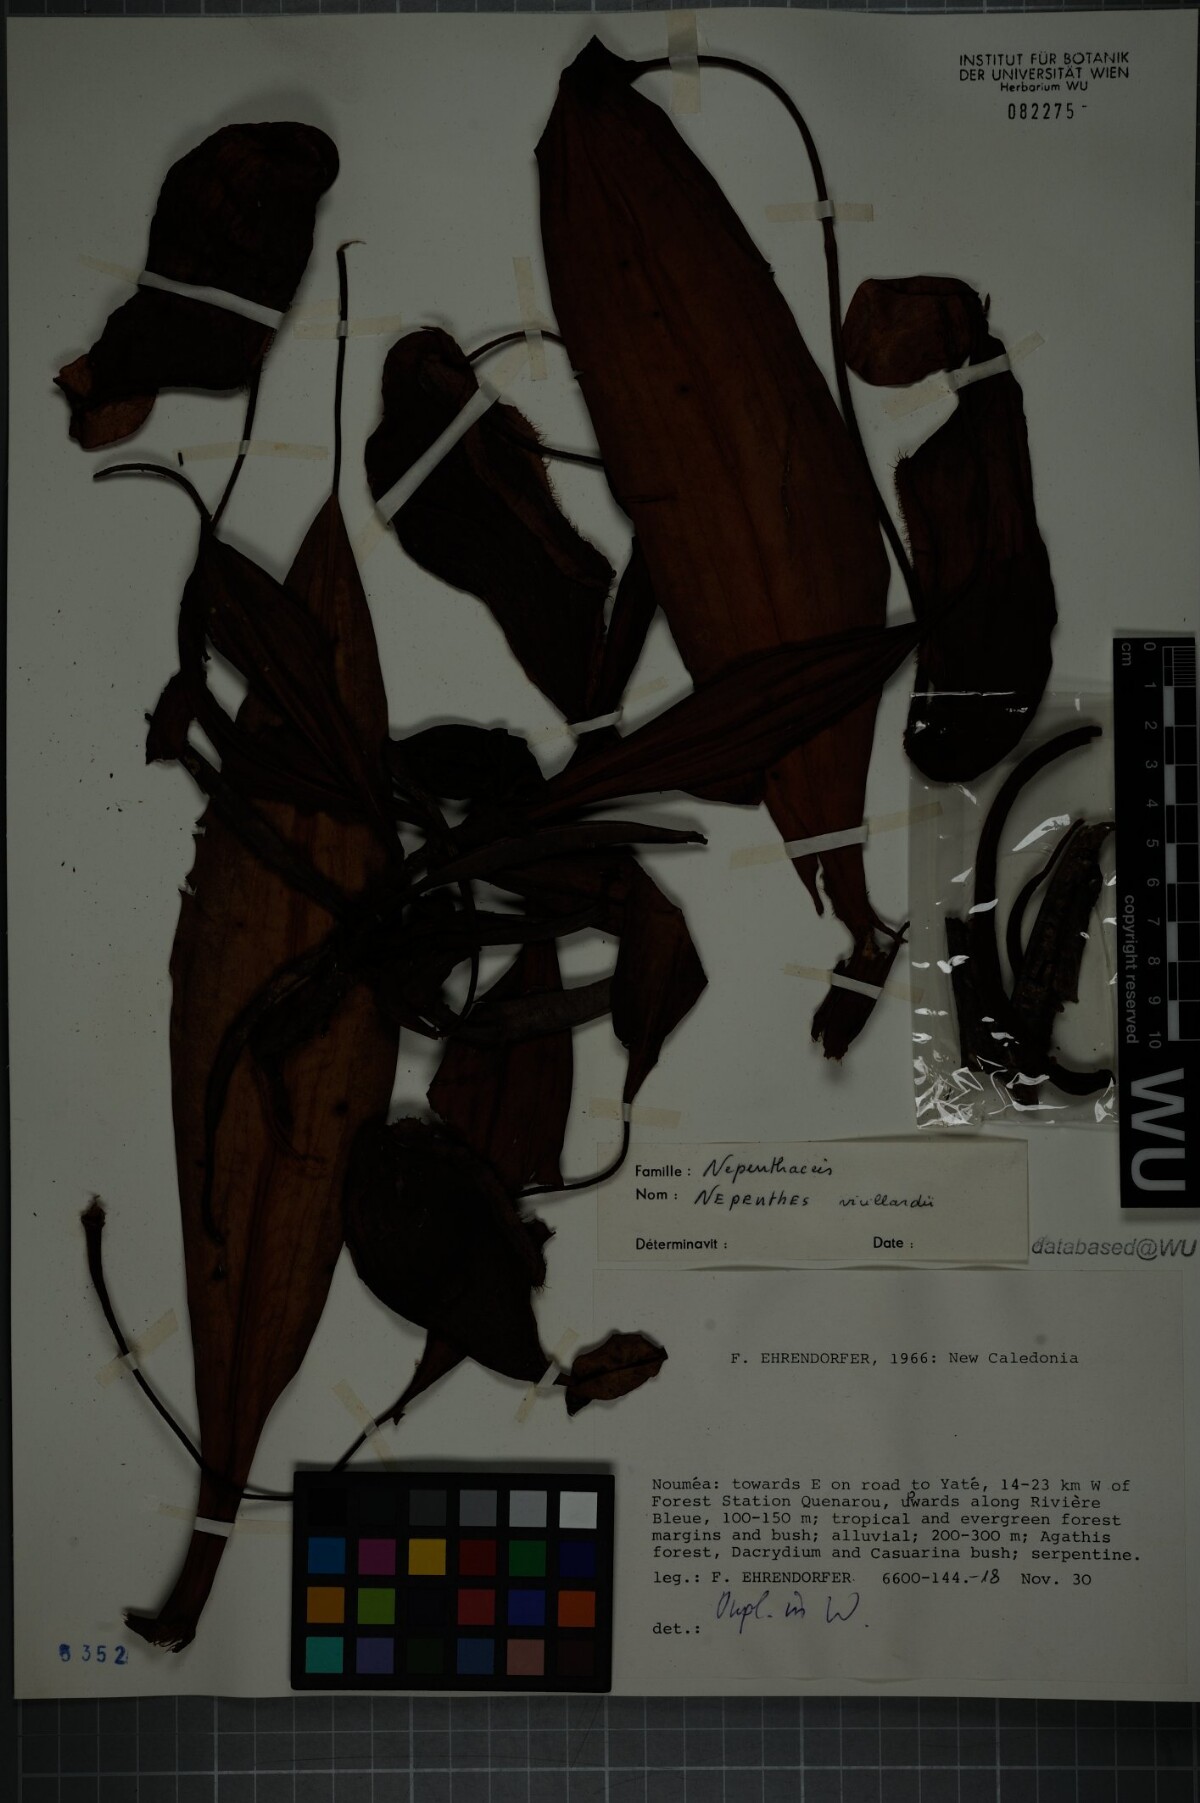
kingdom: Plantae
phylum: Tracheophyta
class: Magnoliopsida
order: Caryophyllales
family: Nepenthaceae
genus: Nepenthes
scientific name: Nepenthes vieillardii
